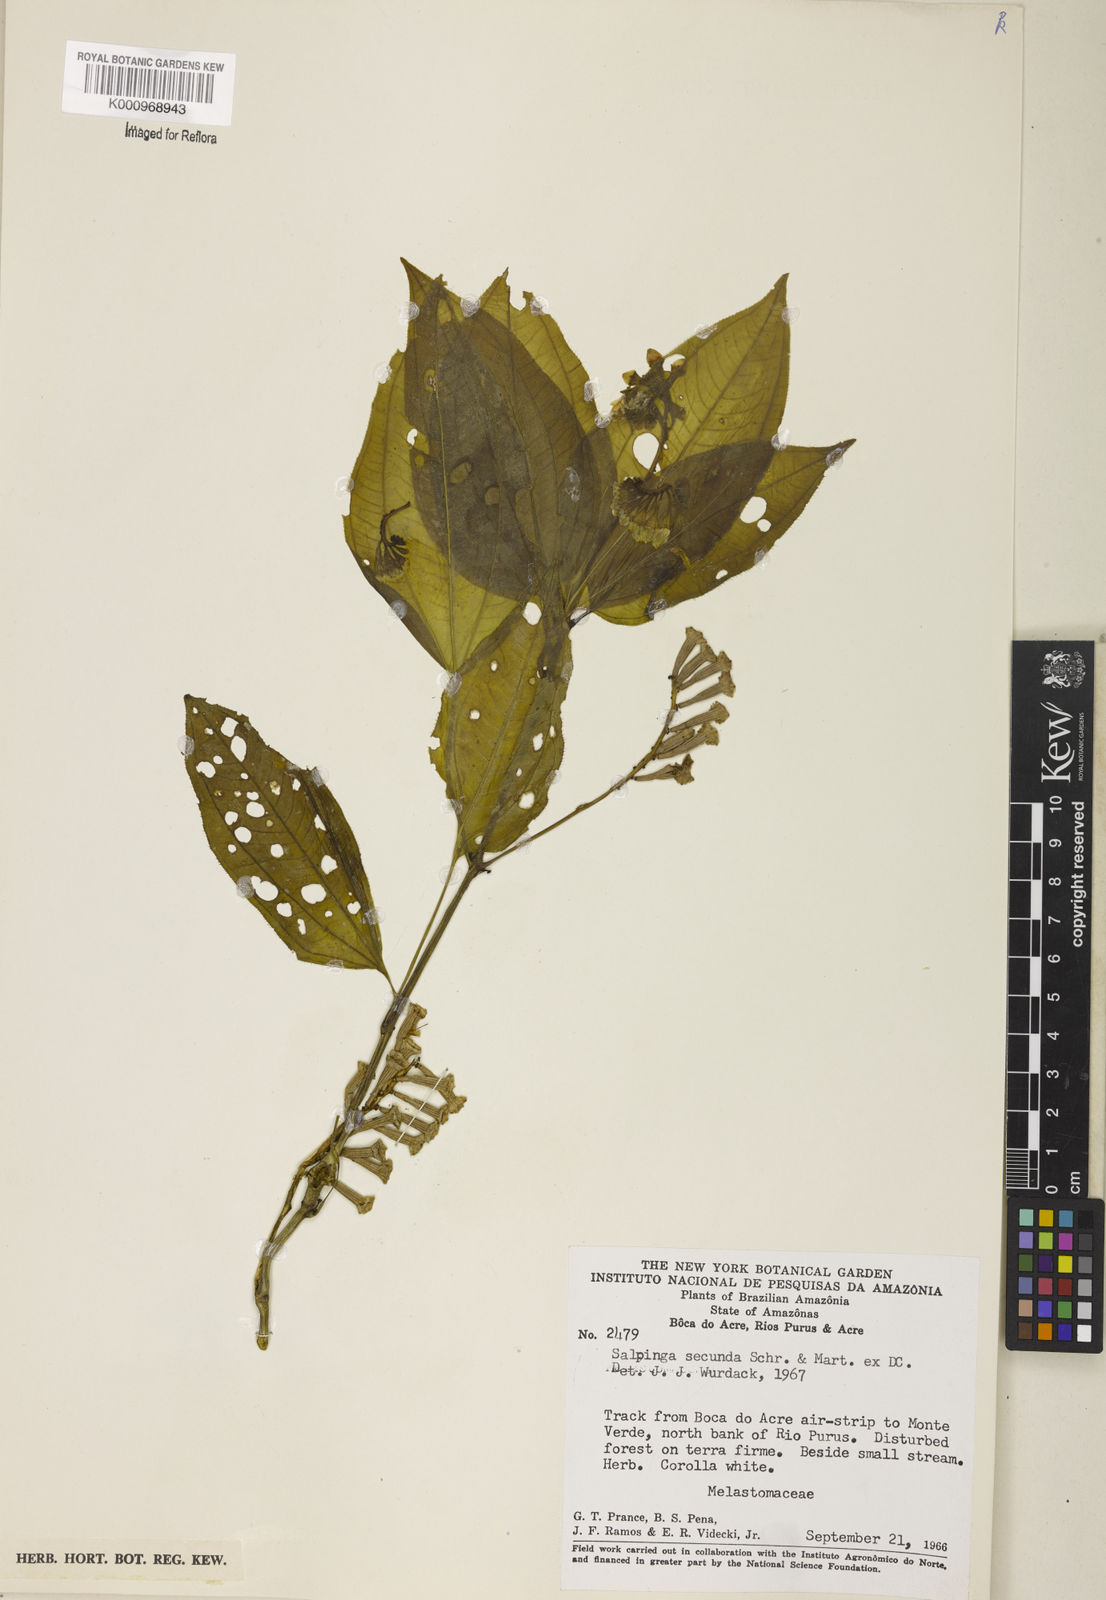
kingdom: Plantae
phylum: Tracheophyta
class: Magnoliopsida
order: Myrtales
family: Melastomataceae
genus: Salpinga
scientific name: Salpinga secunda
